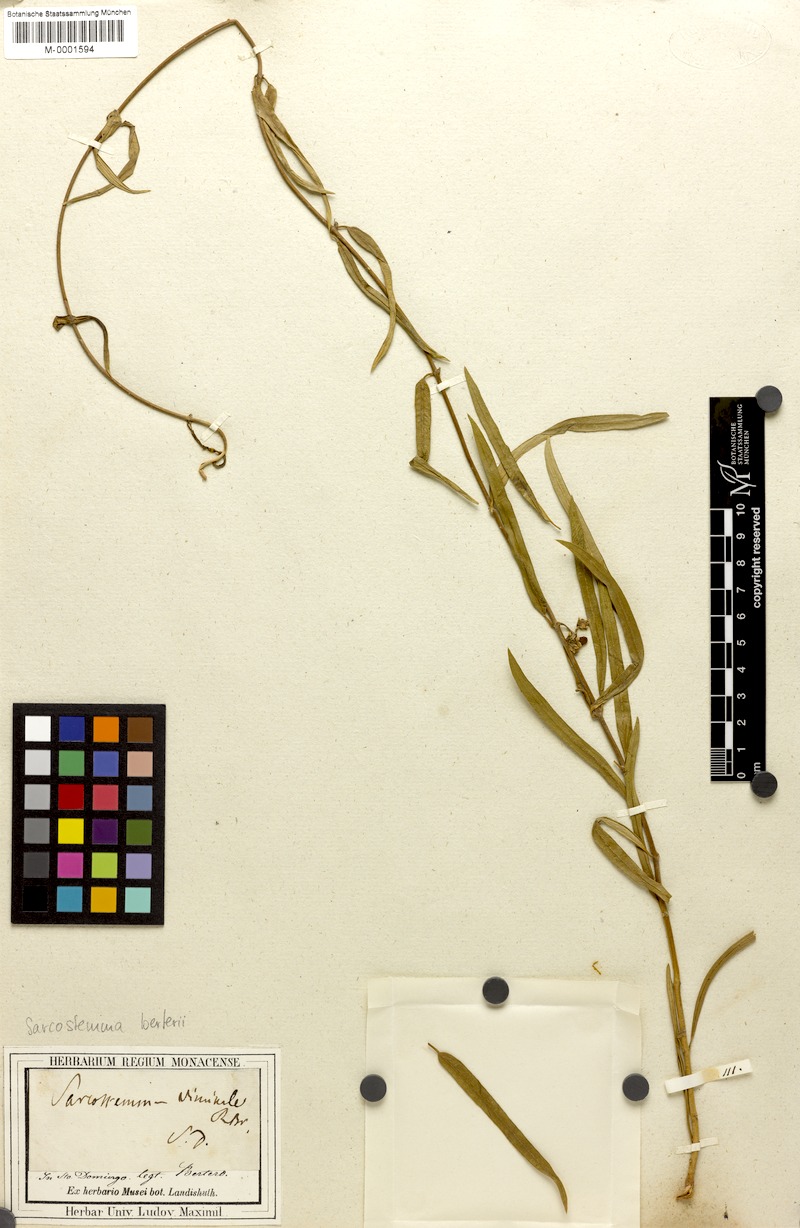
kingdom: Plantae
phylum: Tracheophyta
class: Magnoliopsida
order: Gentianales
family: Apocynaceae
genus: Cynanchum
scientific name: Cynanchum
